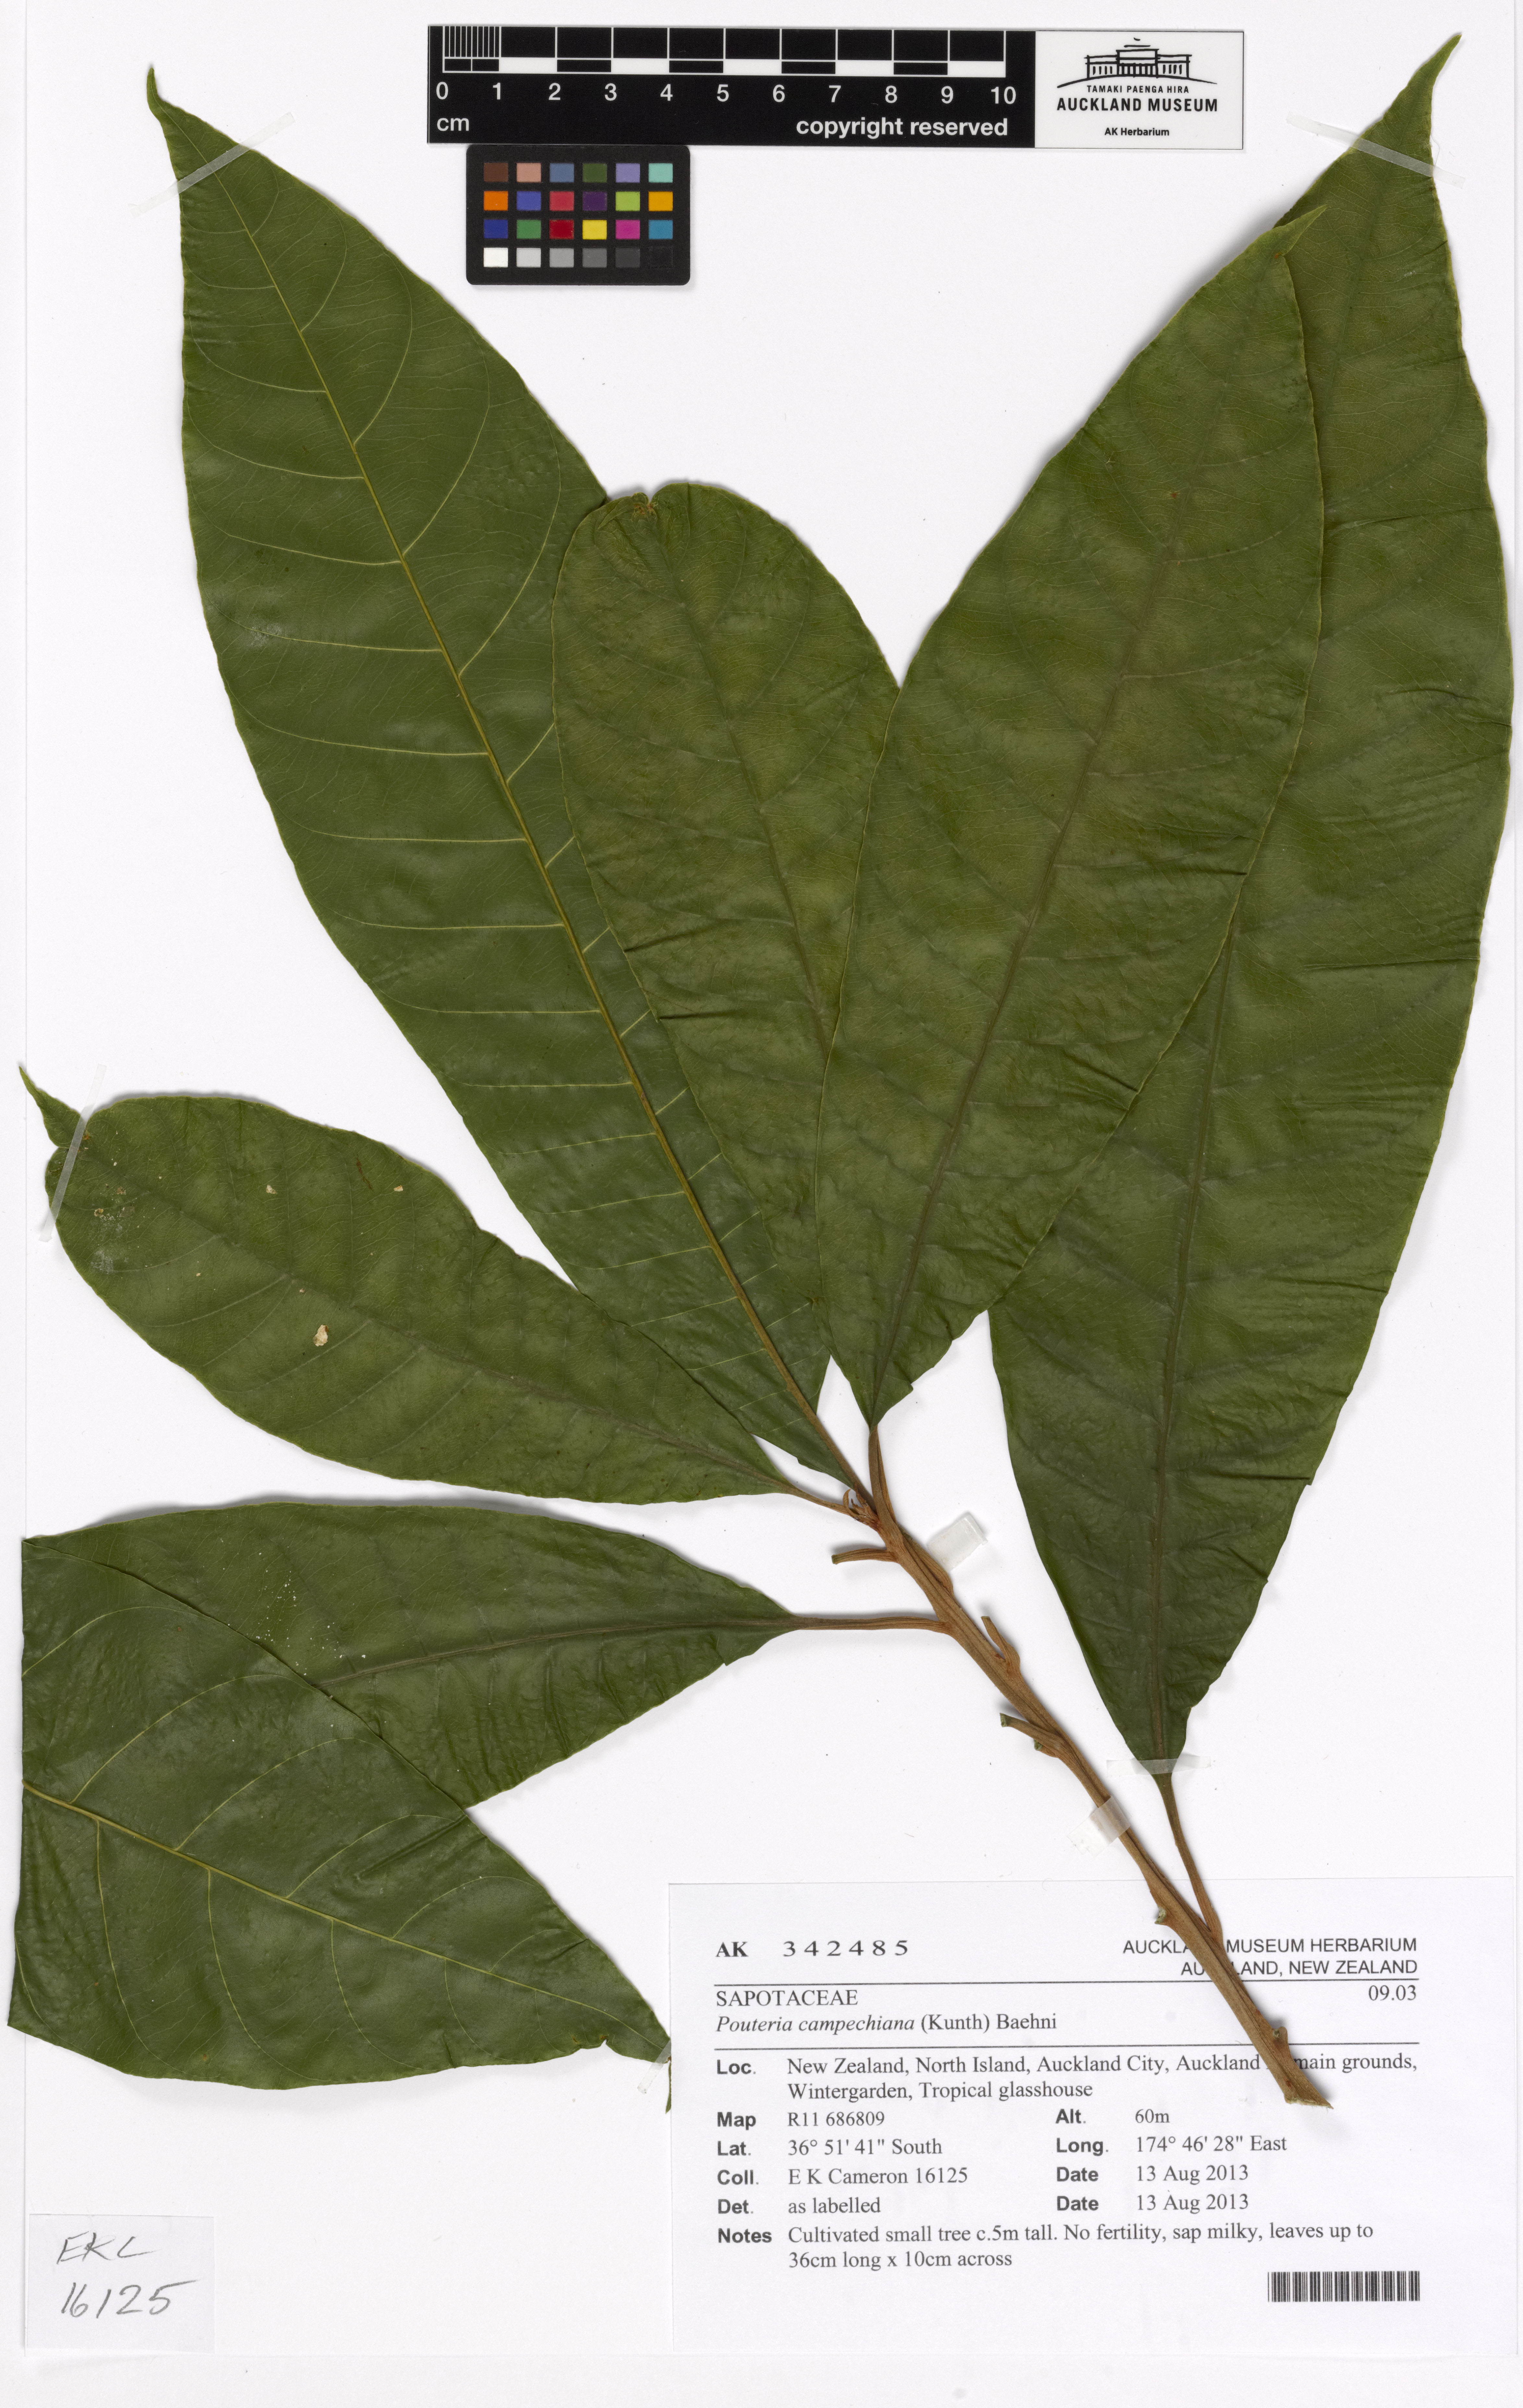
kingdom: Plantae
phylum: Tracheophyta
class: Magnoliopsida
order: Ericales
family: Sapotaceae
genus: Pouteria
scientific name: Pouteria campechiana
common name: Canistel
